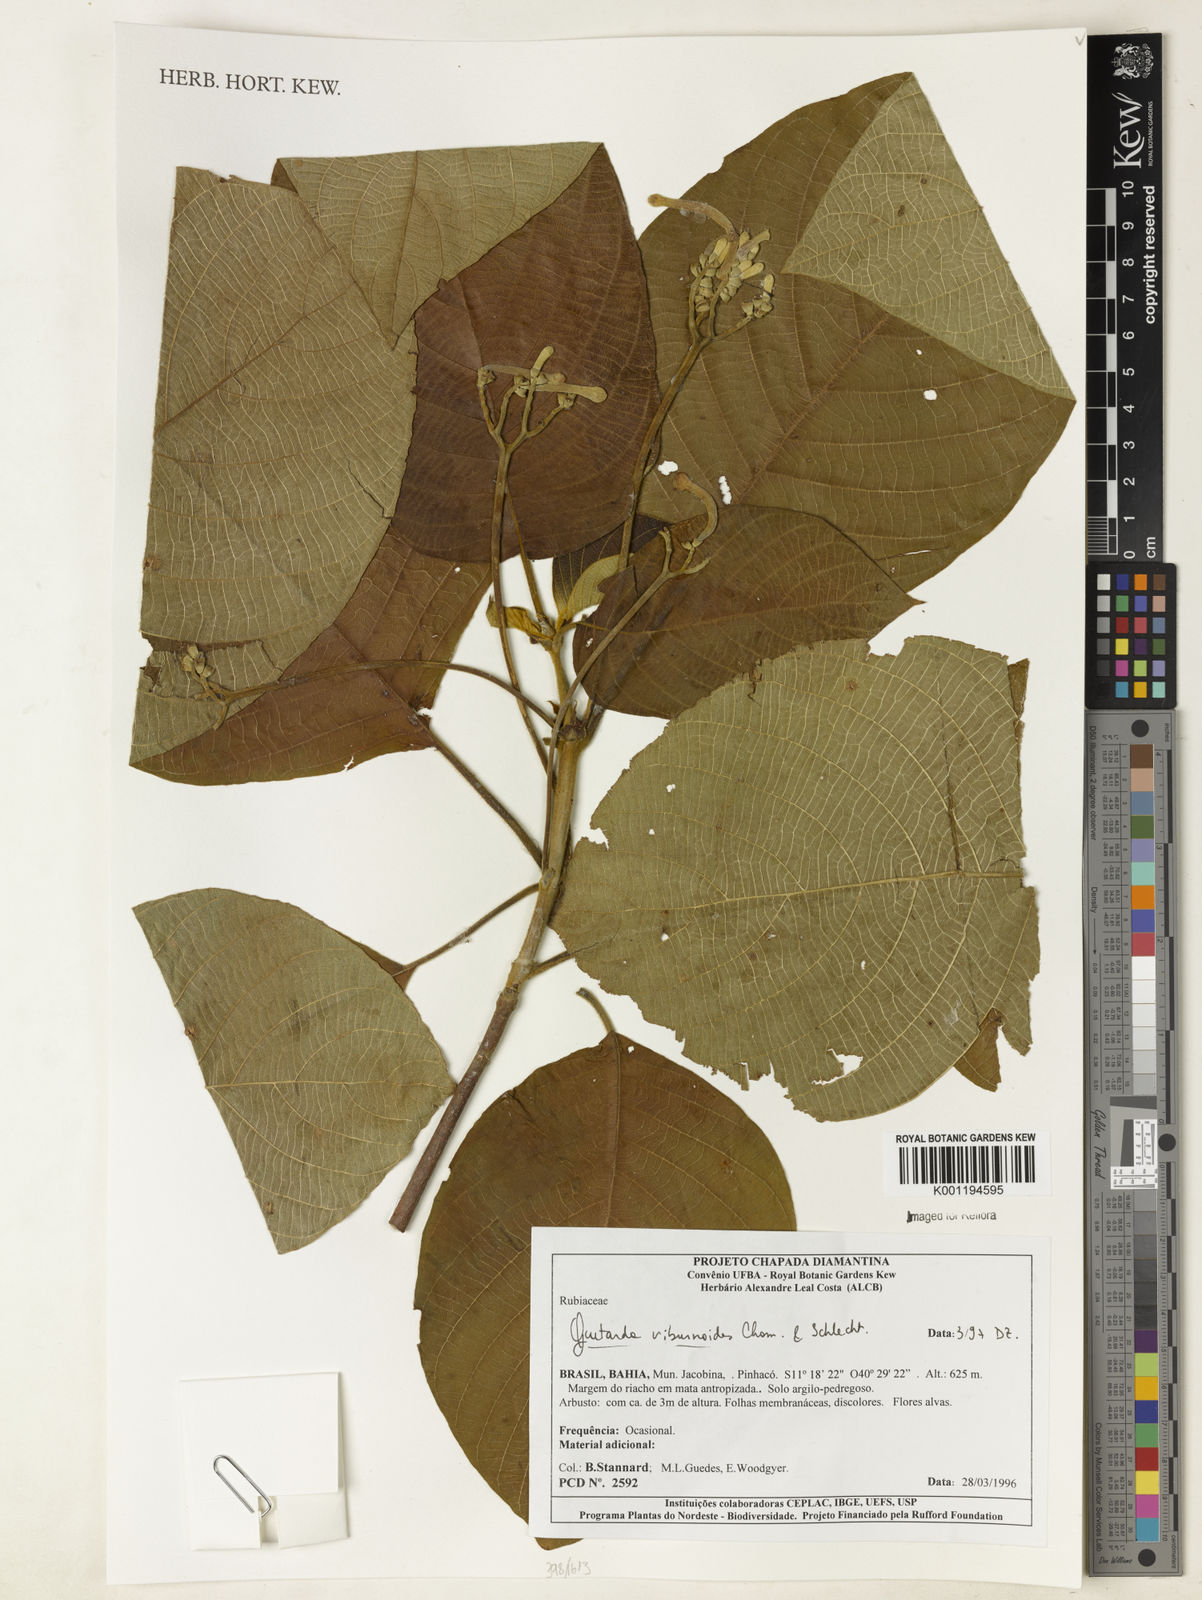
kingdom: Plantae
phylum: Tracheophyta
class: Magnoliopsida
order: Gentianales
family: Rubiaceae
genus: Guettarda
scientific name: Guettarda viburnoides
